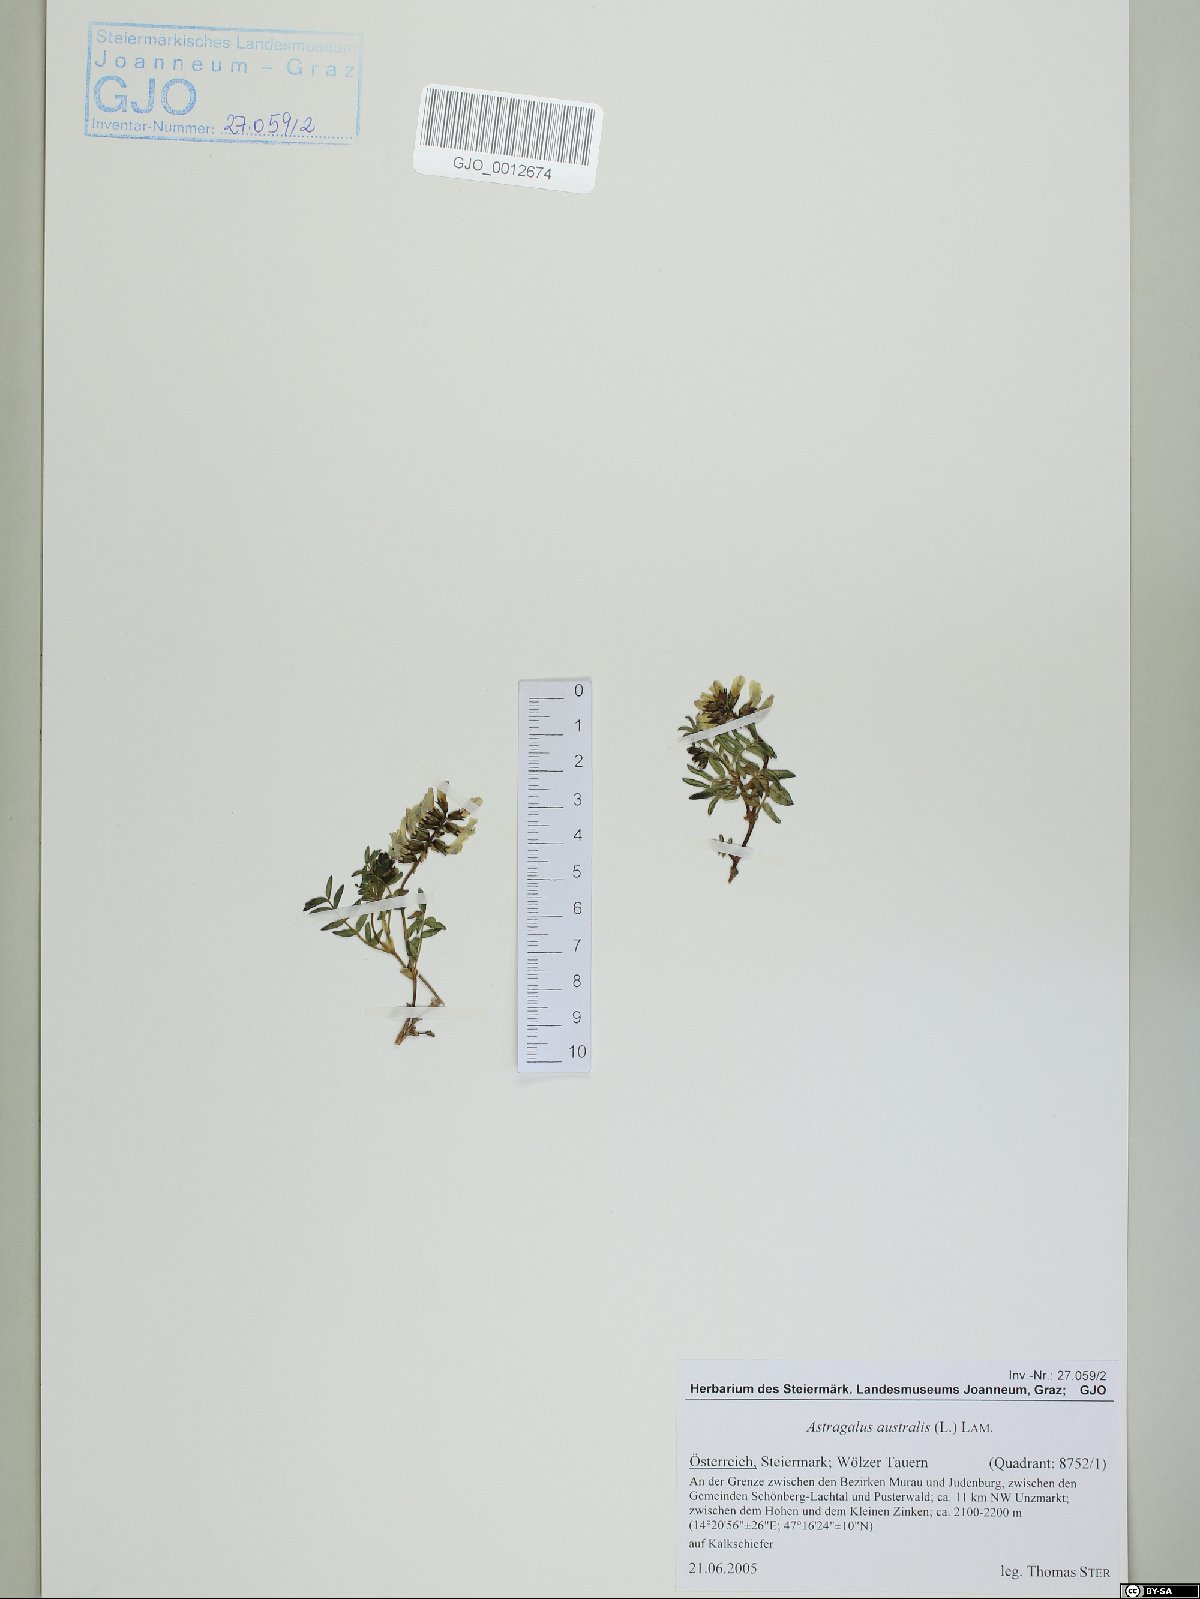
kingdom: Plantae
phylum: Tracheophyta
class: Magnoliopsida
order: Fabales
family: Fabaceae
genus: Astragalus
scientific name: Astragalus australis
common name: Indian milk-vetch
